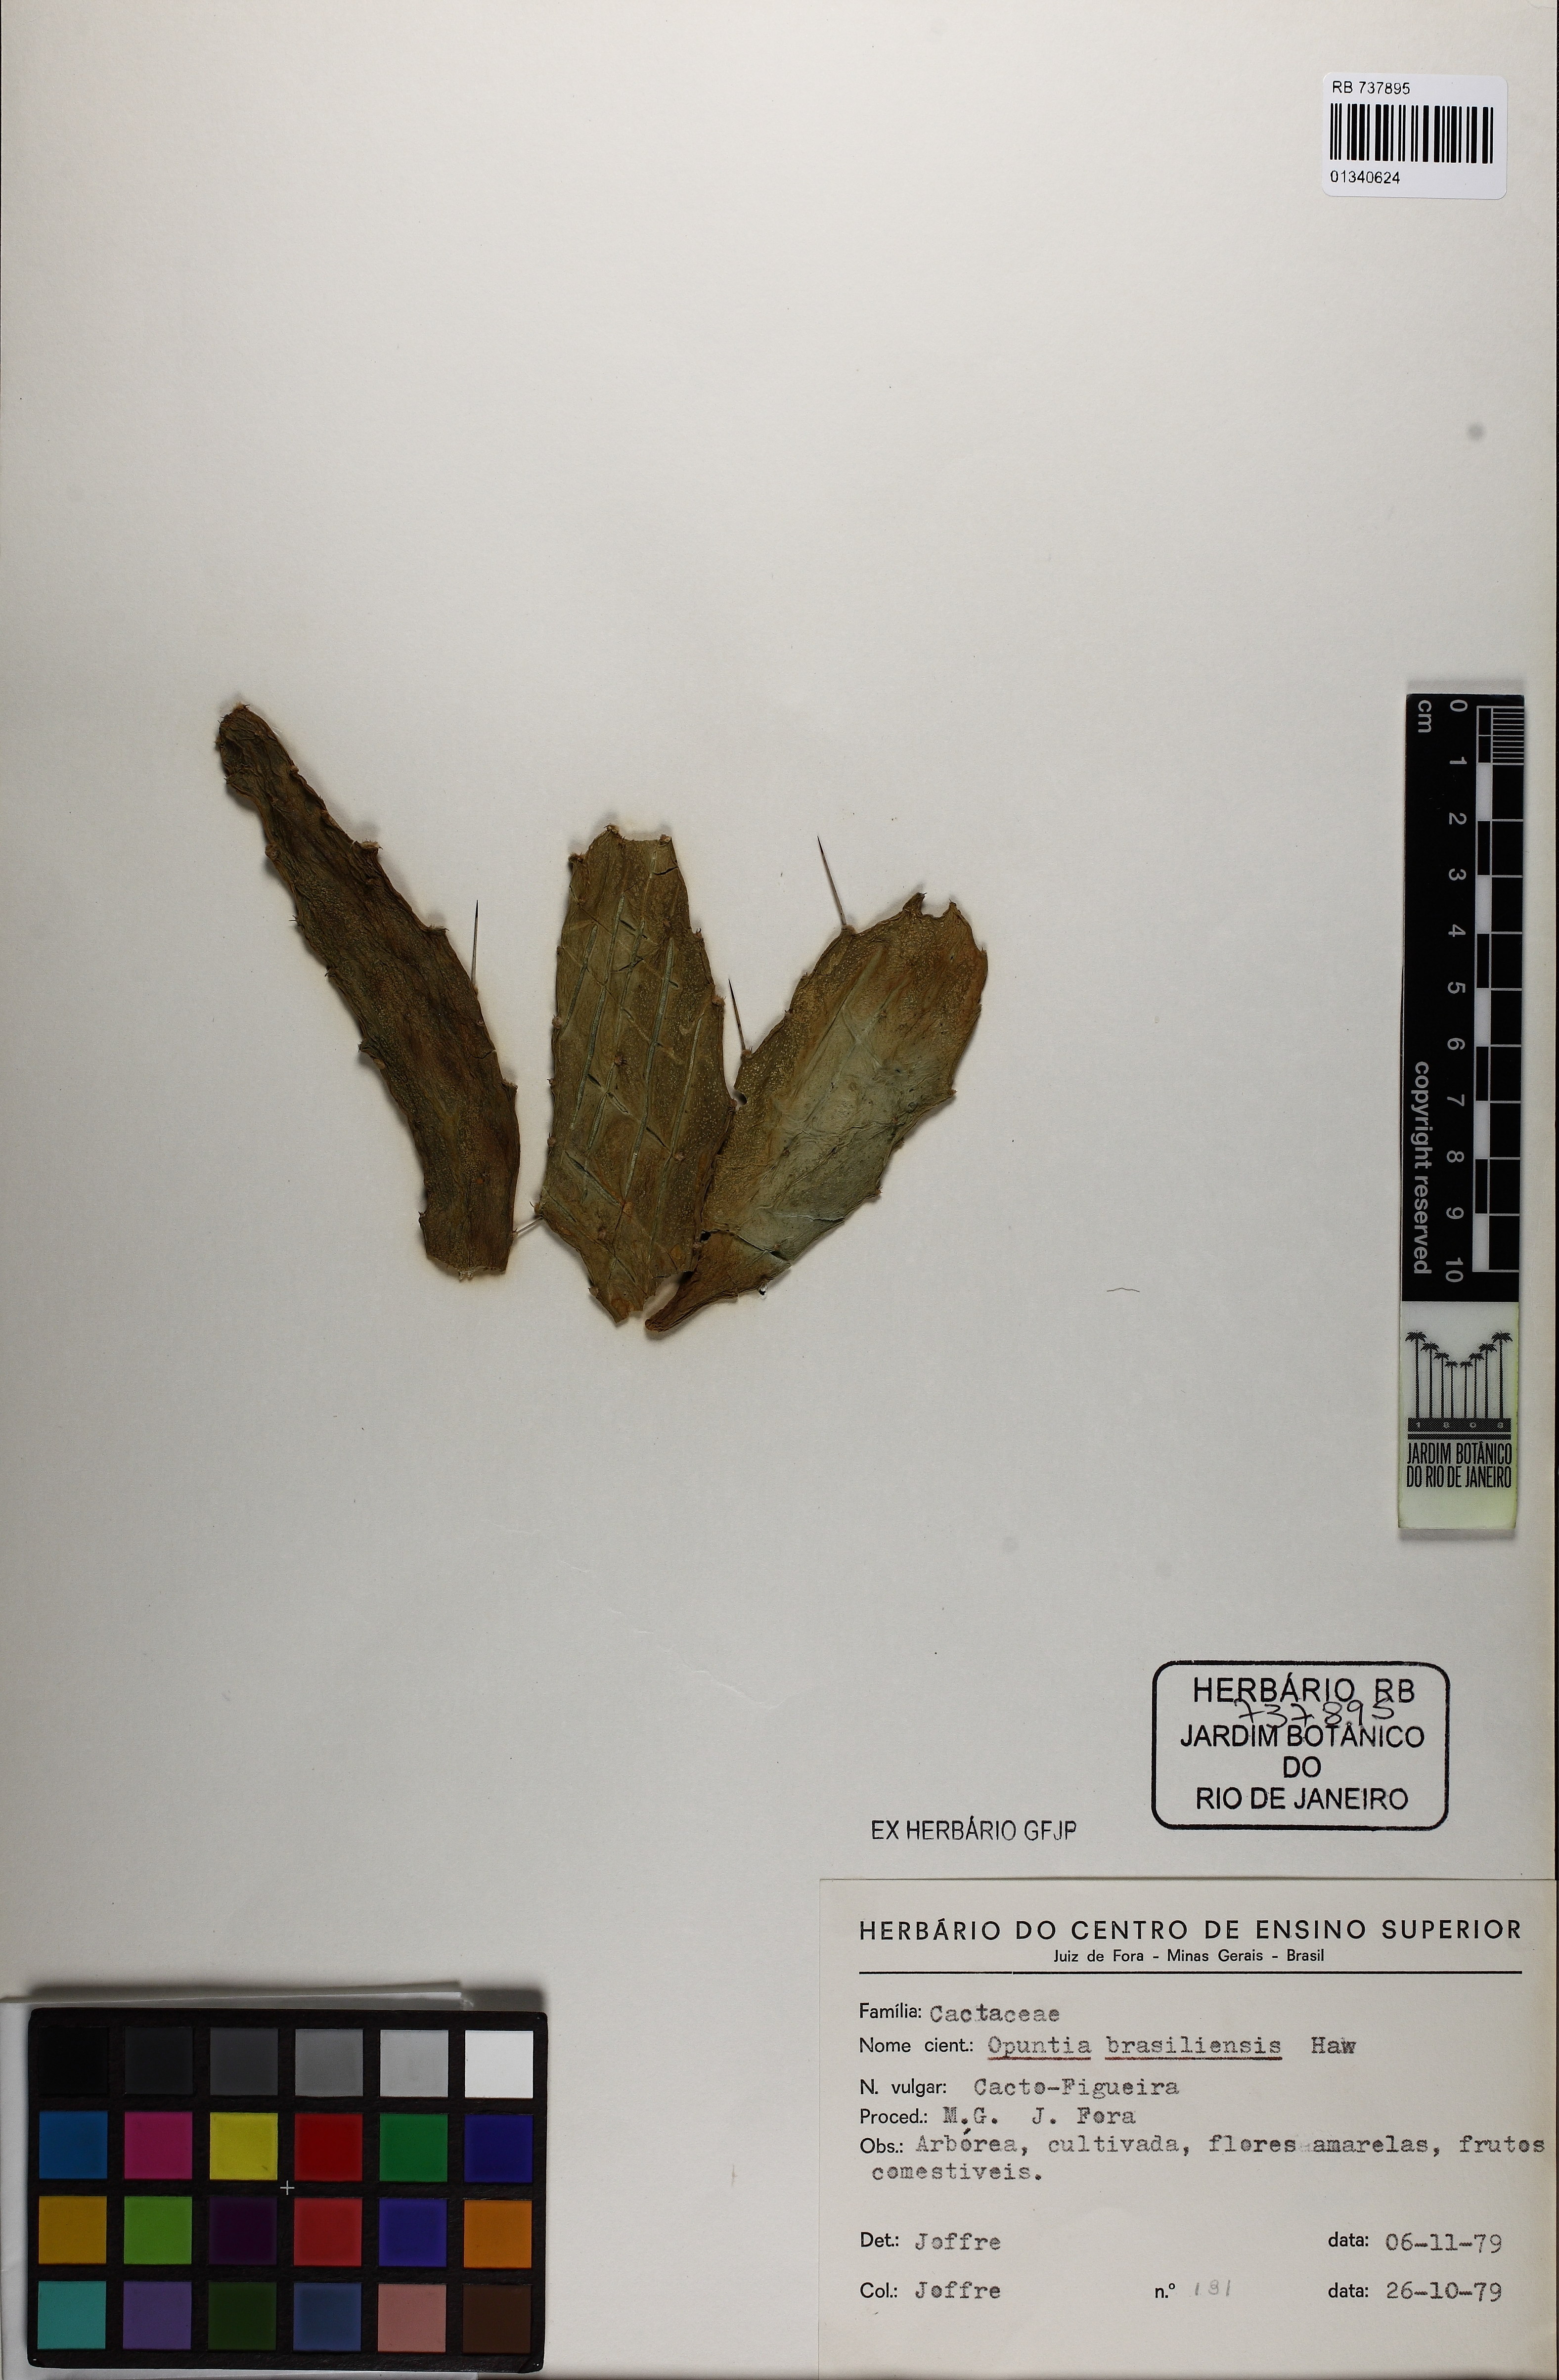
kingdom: Plantae
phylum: Tracheophyta
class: Magnoliopsida
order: Caryophyllales
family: Cactaceae
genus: Brasiliopuntia
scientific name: Brasiliopuntia brasiliensis
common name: Brazilian pricklypear
